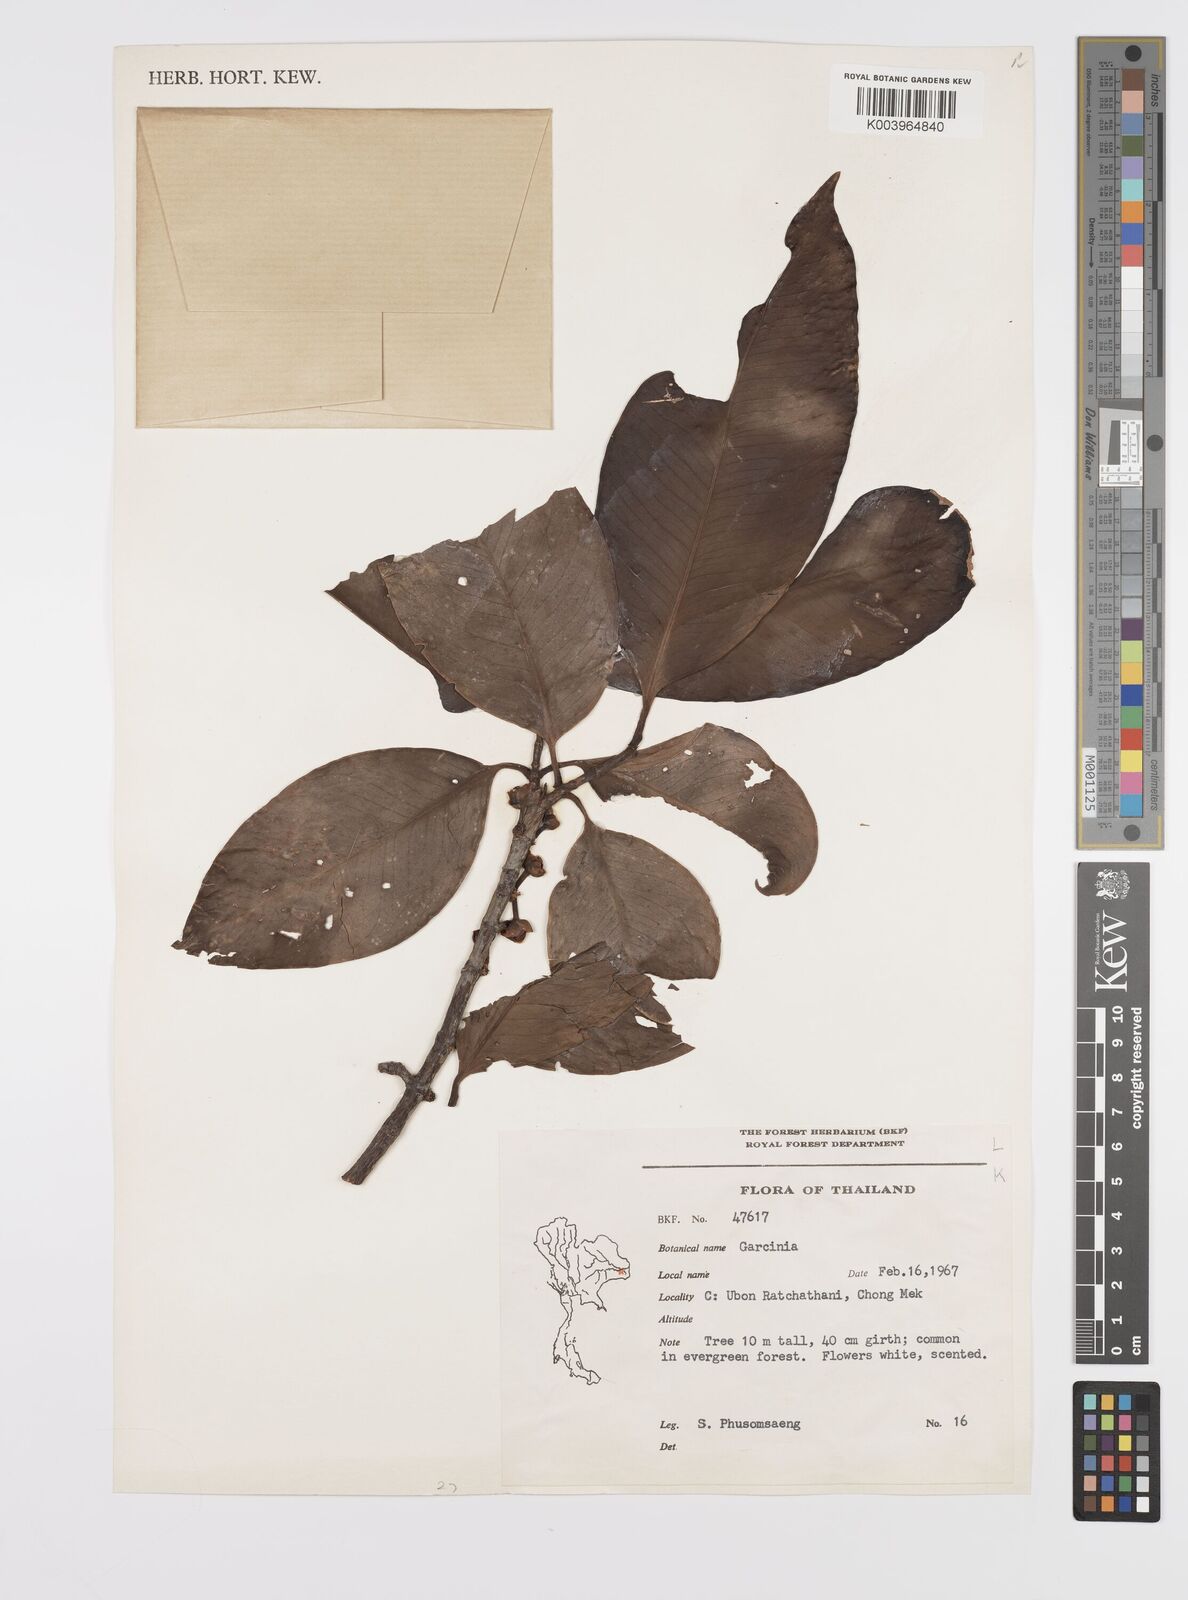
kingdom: Plantae
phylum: Tracheophyta
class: Magnoliopsida
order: Malpighiales
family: Clusiaceae
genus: Garcinia
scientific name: Garcinia
